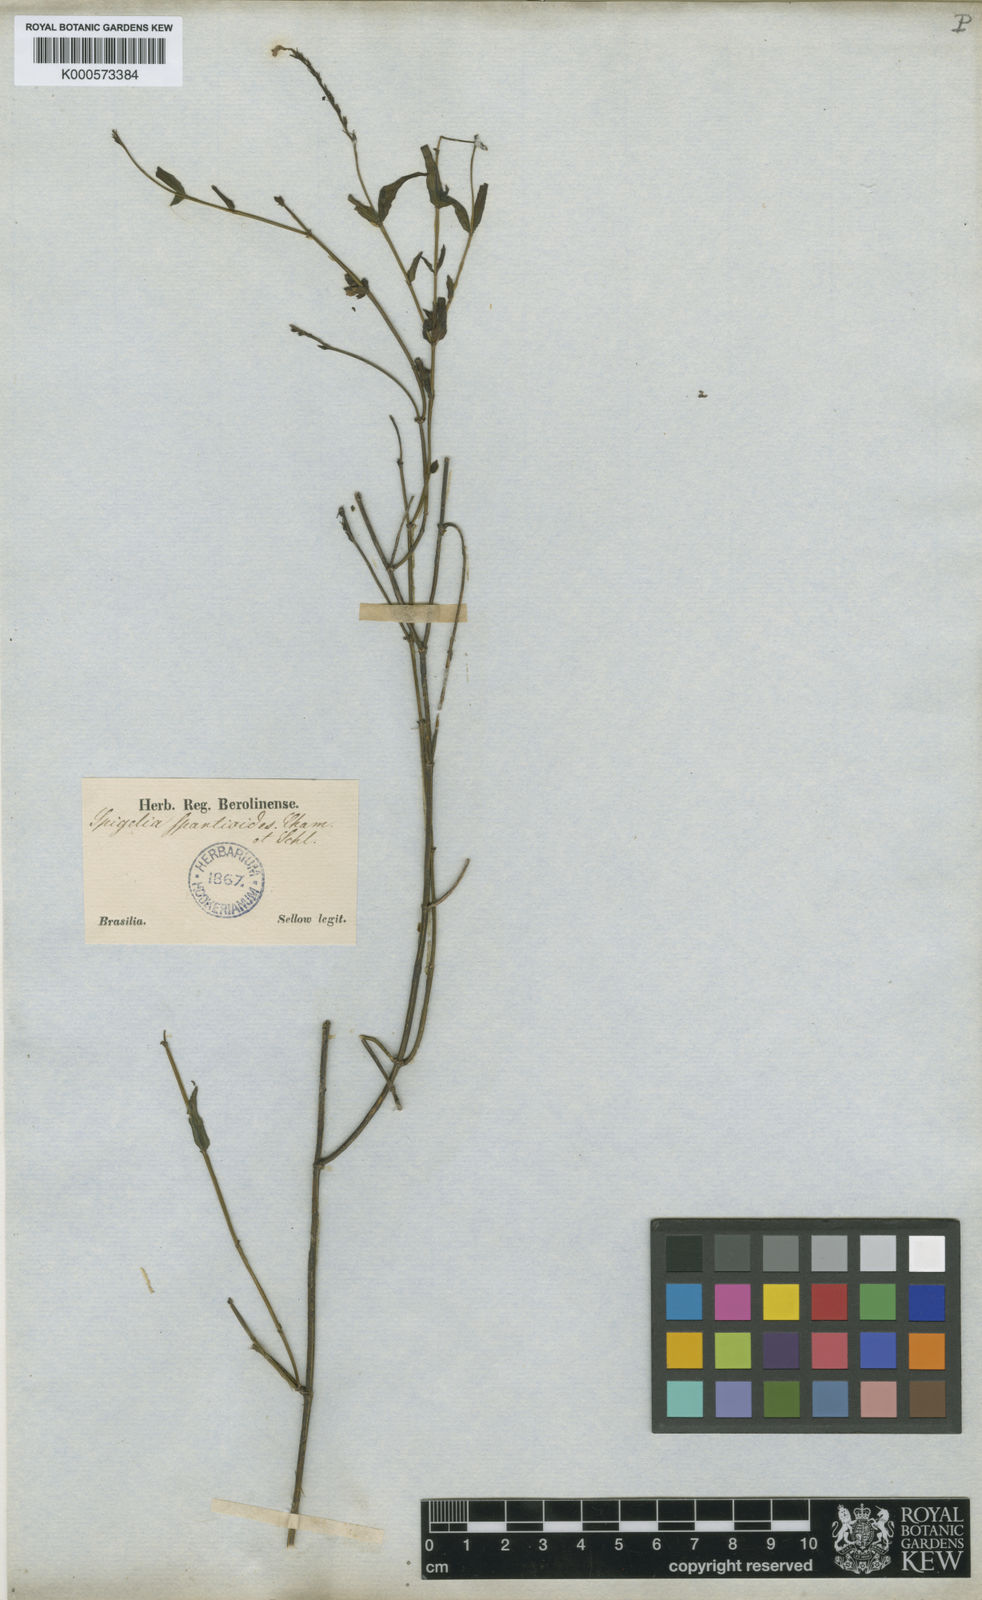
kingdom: Plantae
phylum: Tracheophyta
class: Magnoliopsida
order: Gentianales
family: Loganiaceae
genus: Spigelia
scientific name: Spigelia
